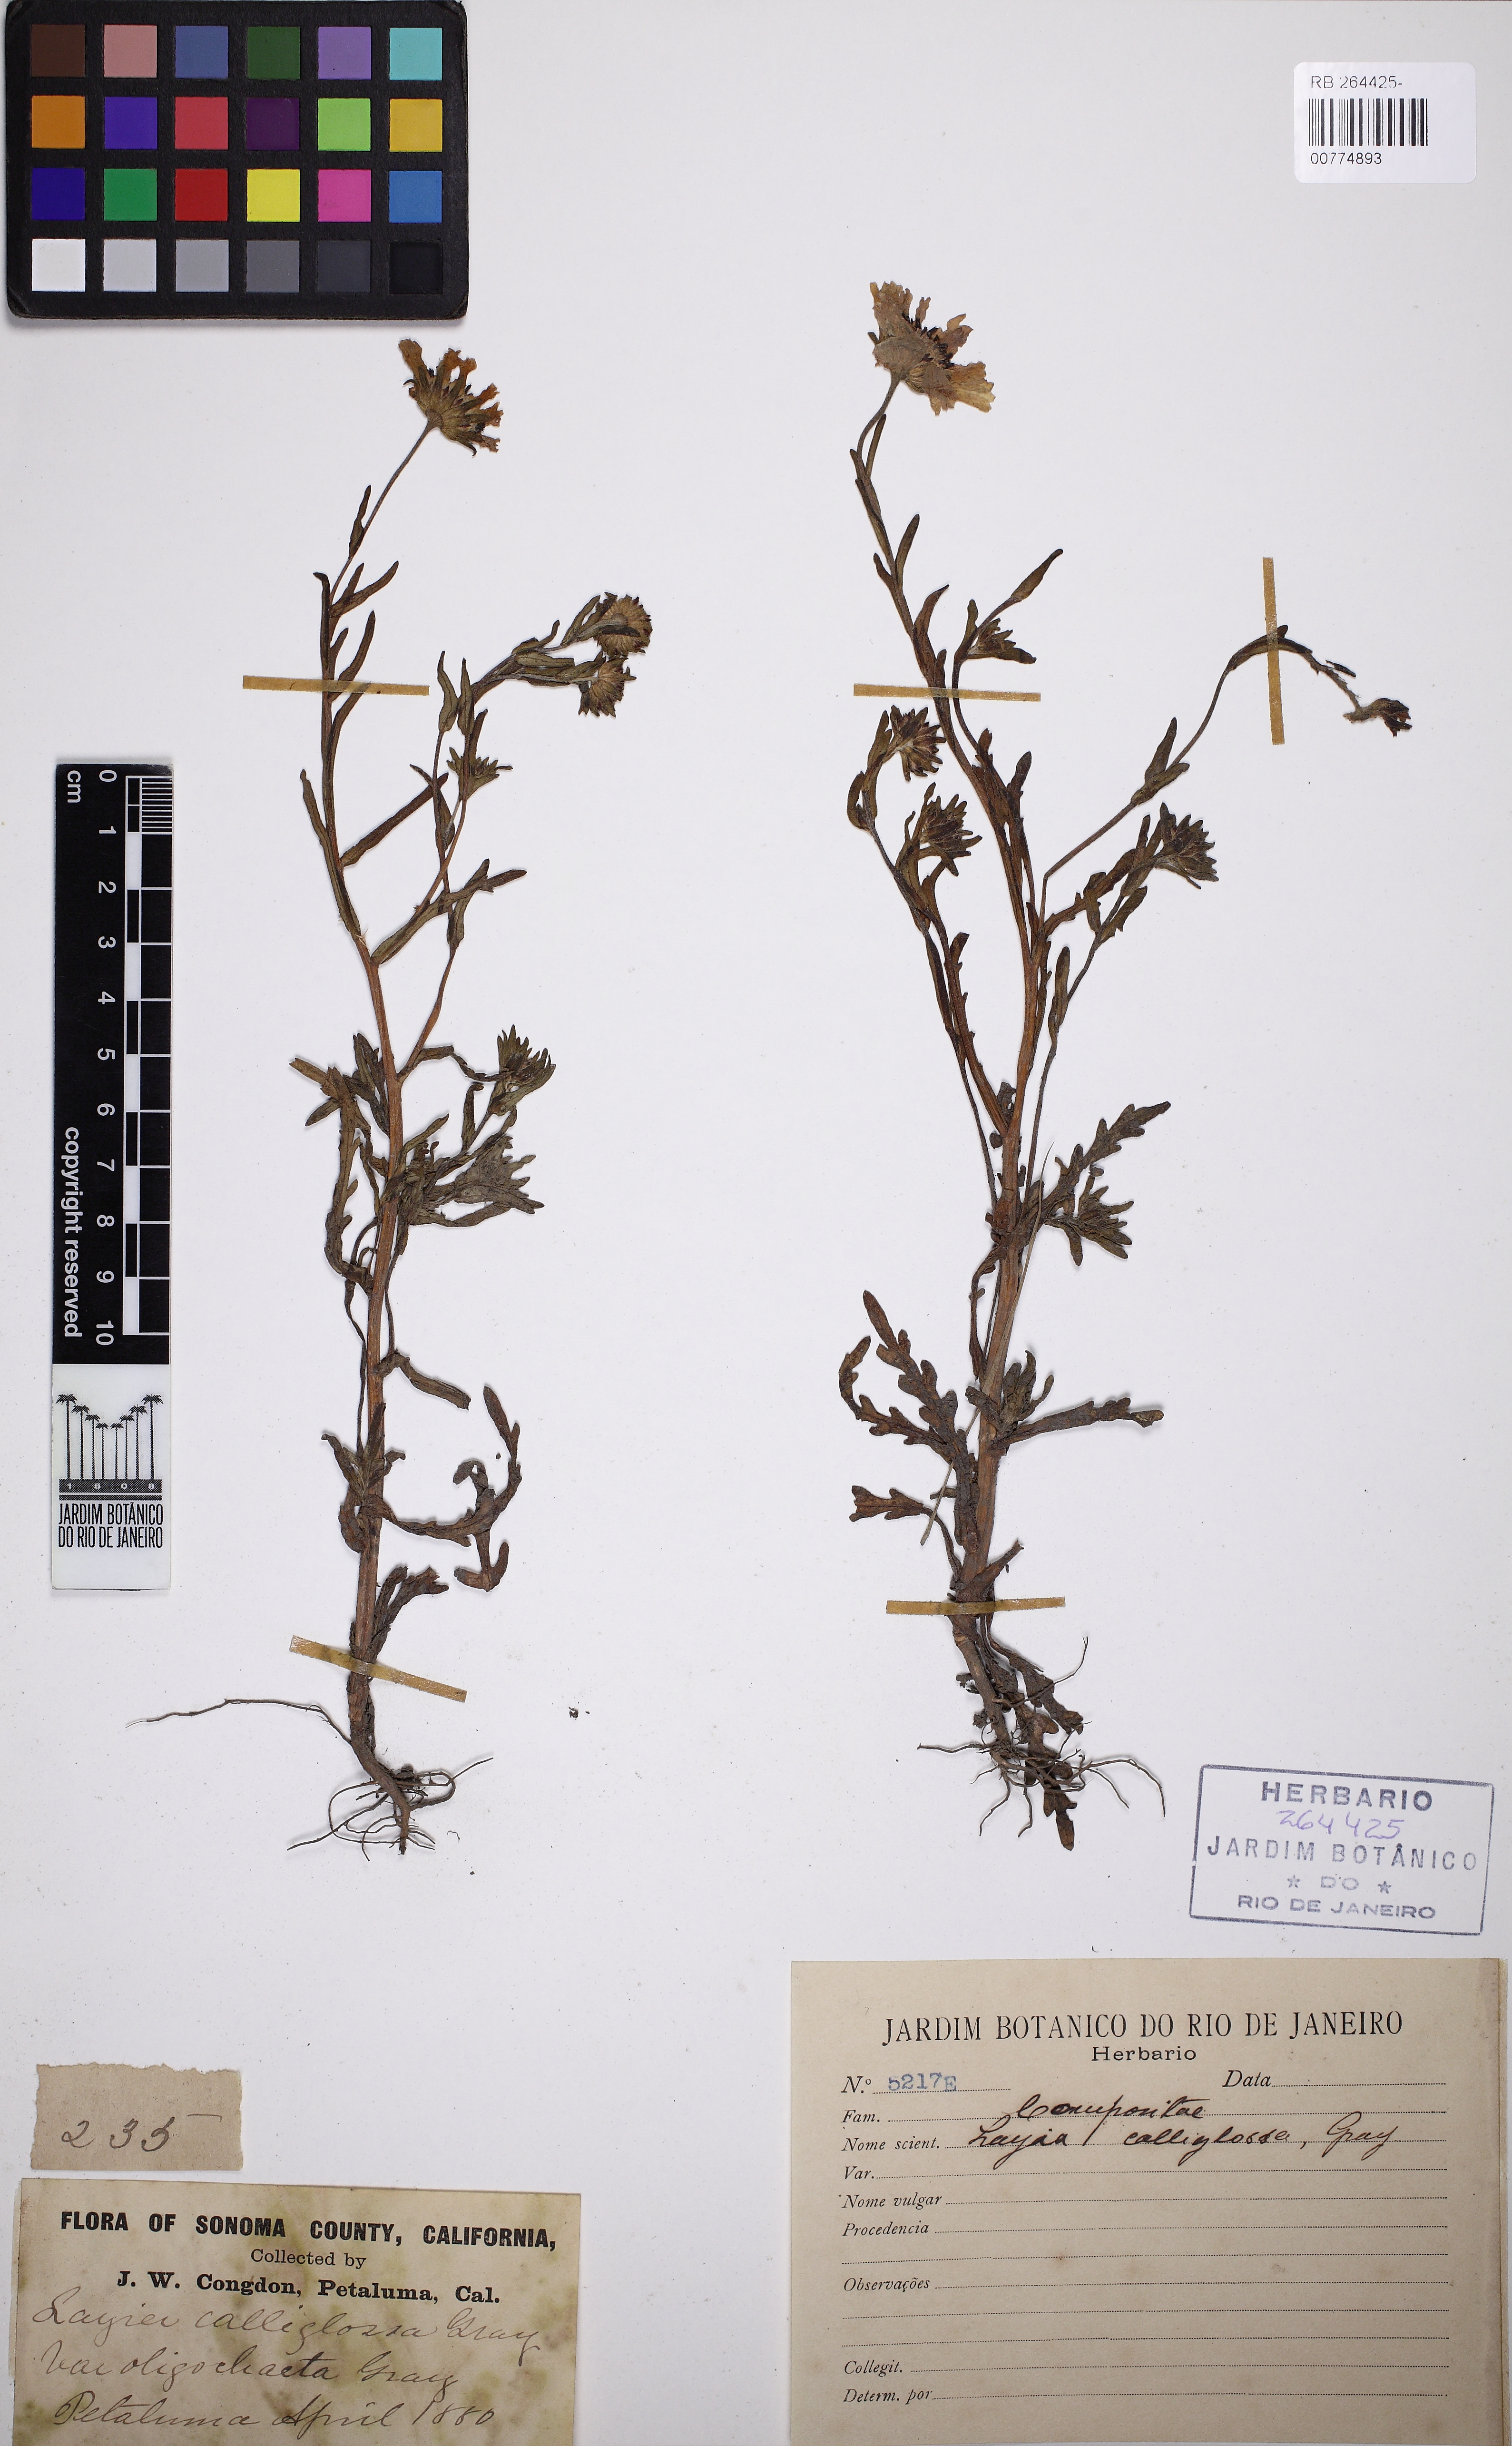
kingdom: Plantae
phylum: Tracheophyta
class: Magnoliopsida
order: Asterales
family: Asteraceae
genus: Layia
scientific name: Layia chrysanthemoides
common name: Smooth layia
